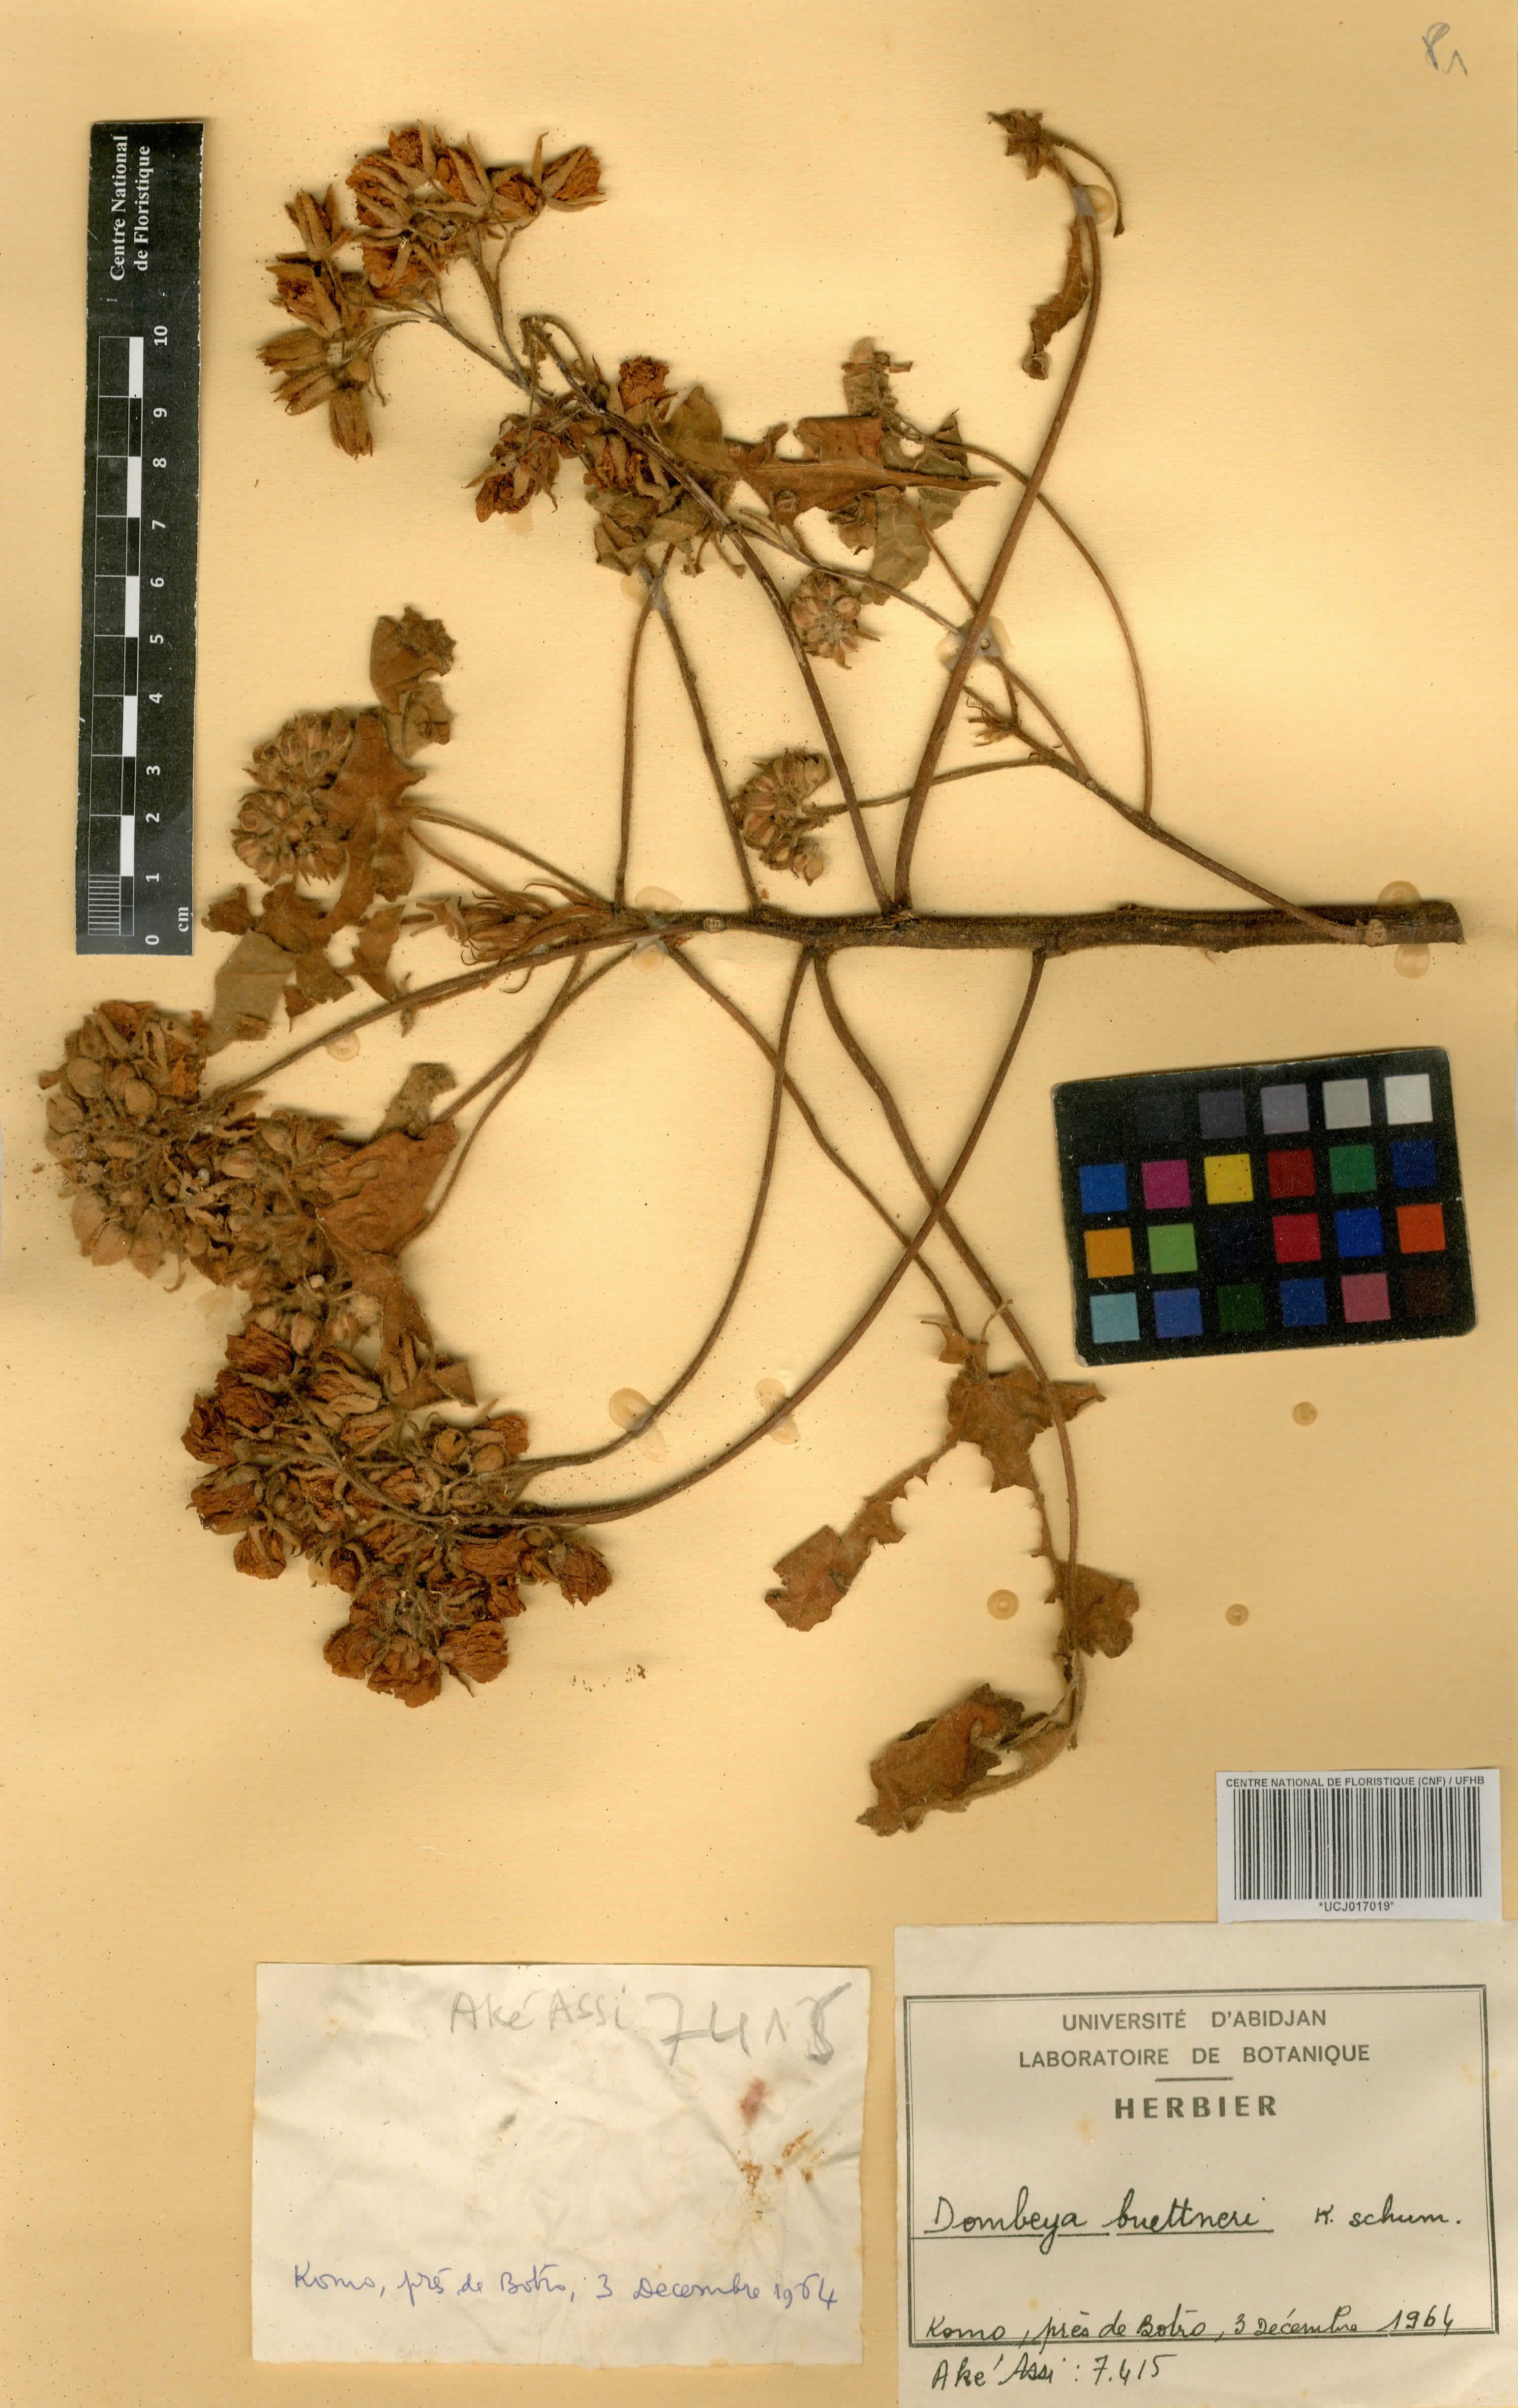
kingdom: Plantae
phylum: Tracheophyta
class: Magnoliopsida
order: Malvales
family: Malvaceae
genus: Dombeya
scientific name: Dombeya buettneri
